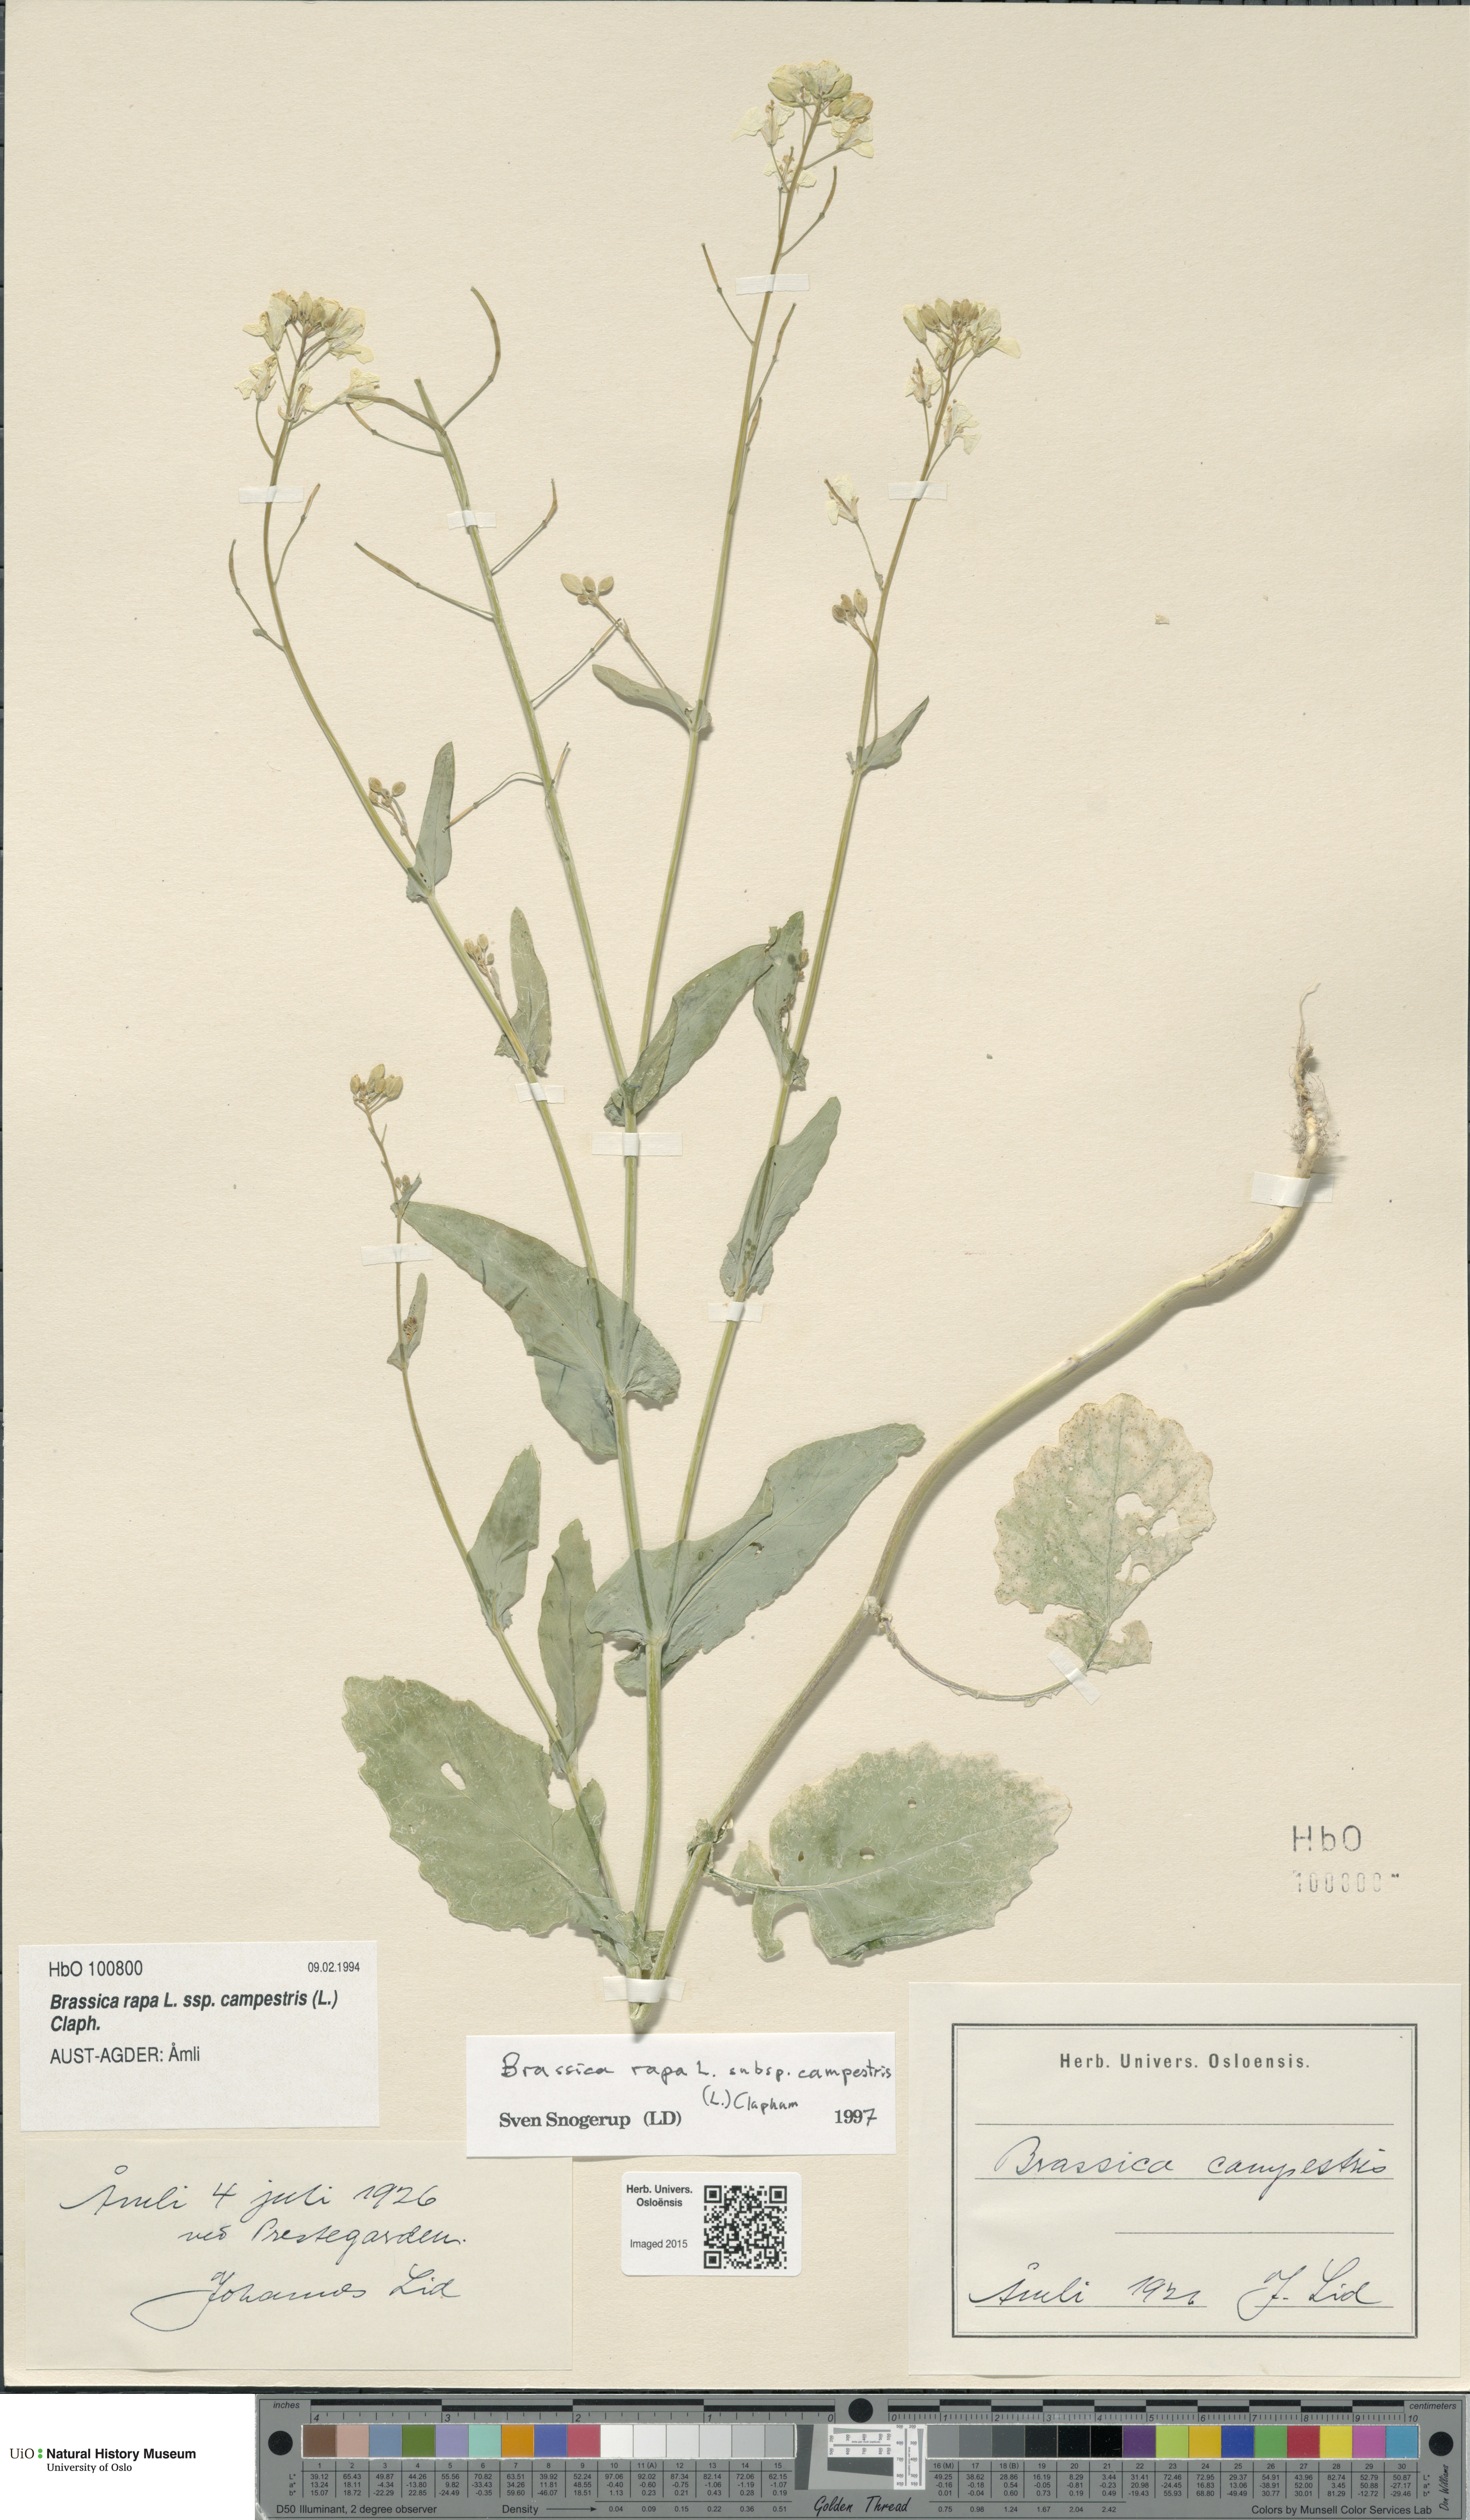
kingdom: Plantae
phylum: Tracheophyta
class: Magnoliopsida
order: Brassicales
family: Brassicaceae
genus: Brassica
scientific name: Brassica rapa
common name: Field mustard
